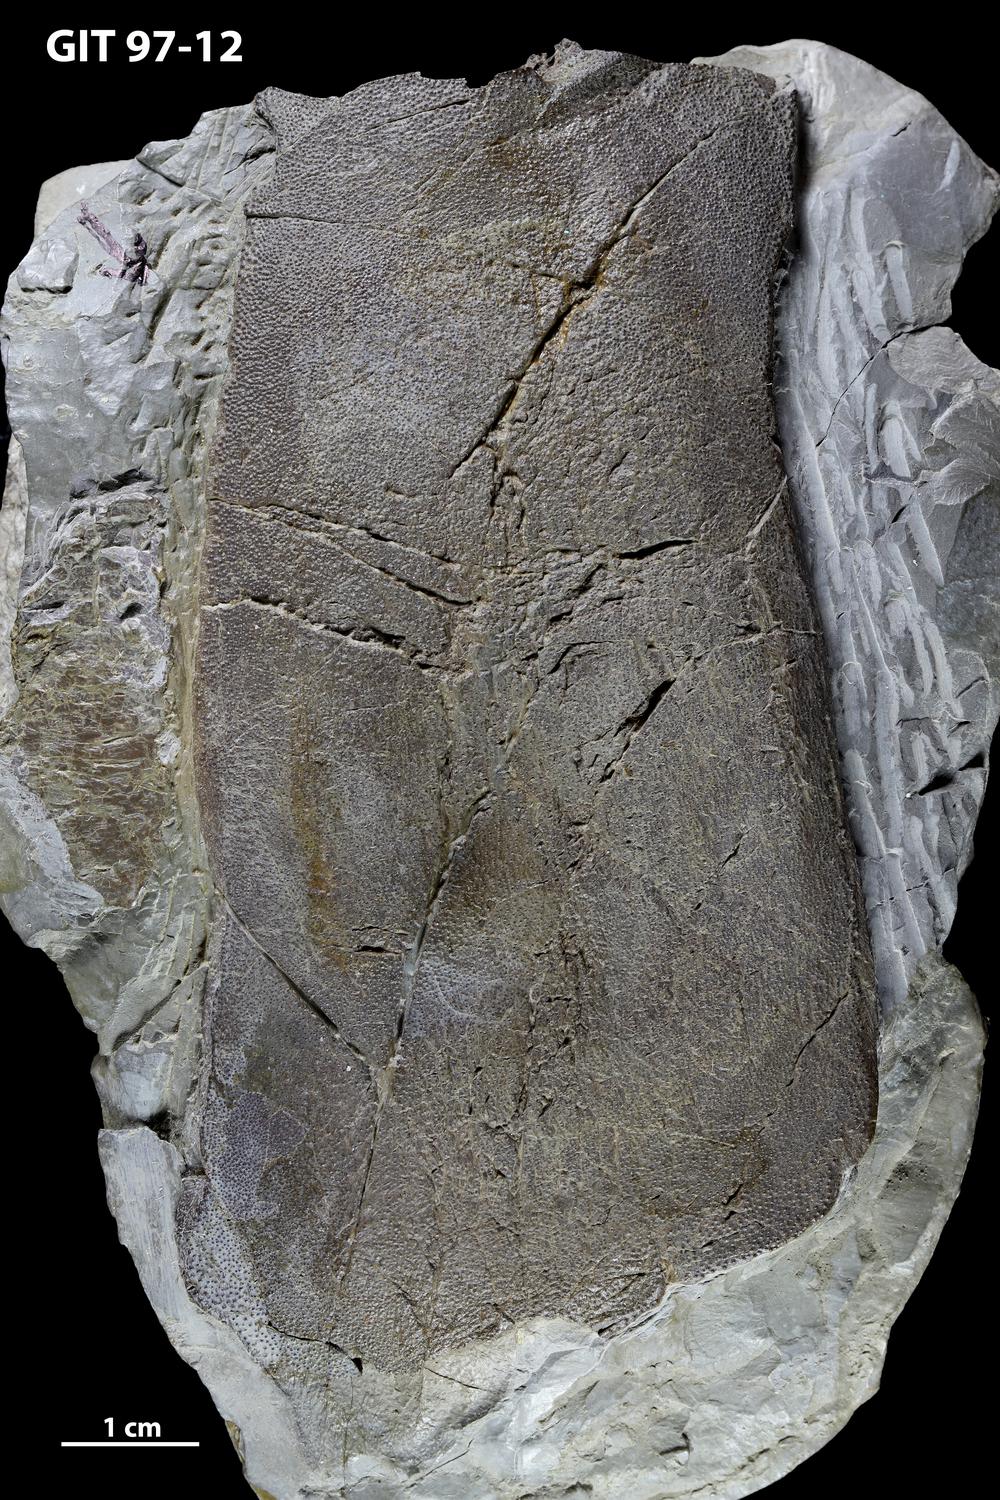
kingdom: Animalia
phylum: Chordata
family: Holonematidae
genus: Holonema
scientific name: Holonema
